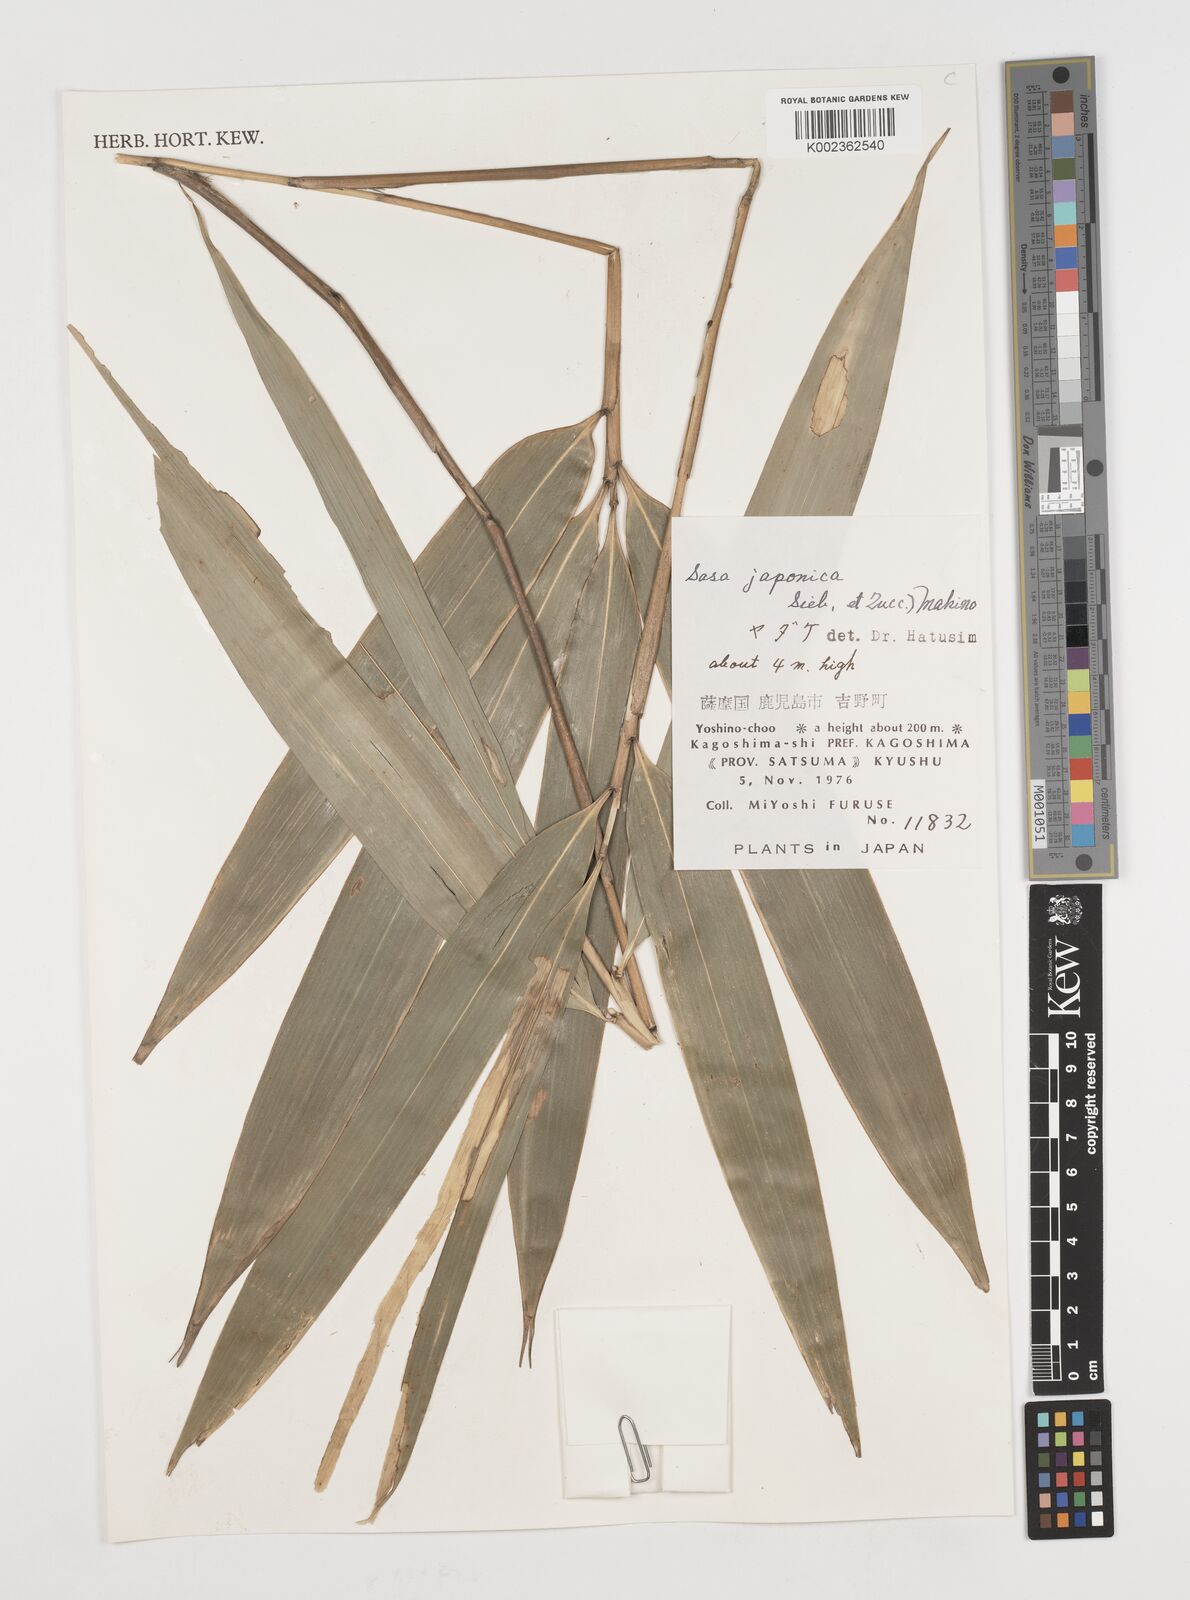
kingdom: Plantae
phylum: Tracheophyta
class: Liliopsida
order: Poales
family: Poaceae
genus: Pseudosasa
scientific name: Pseudosasa japonica
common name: Arrow bamboo
